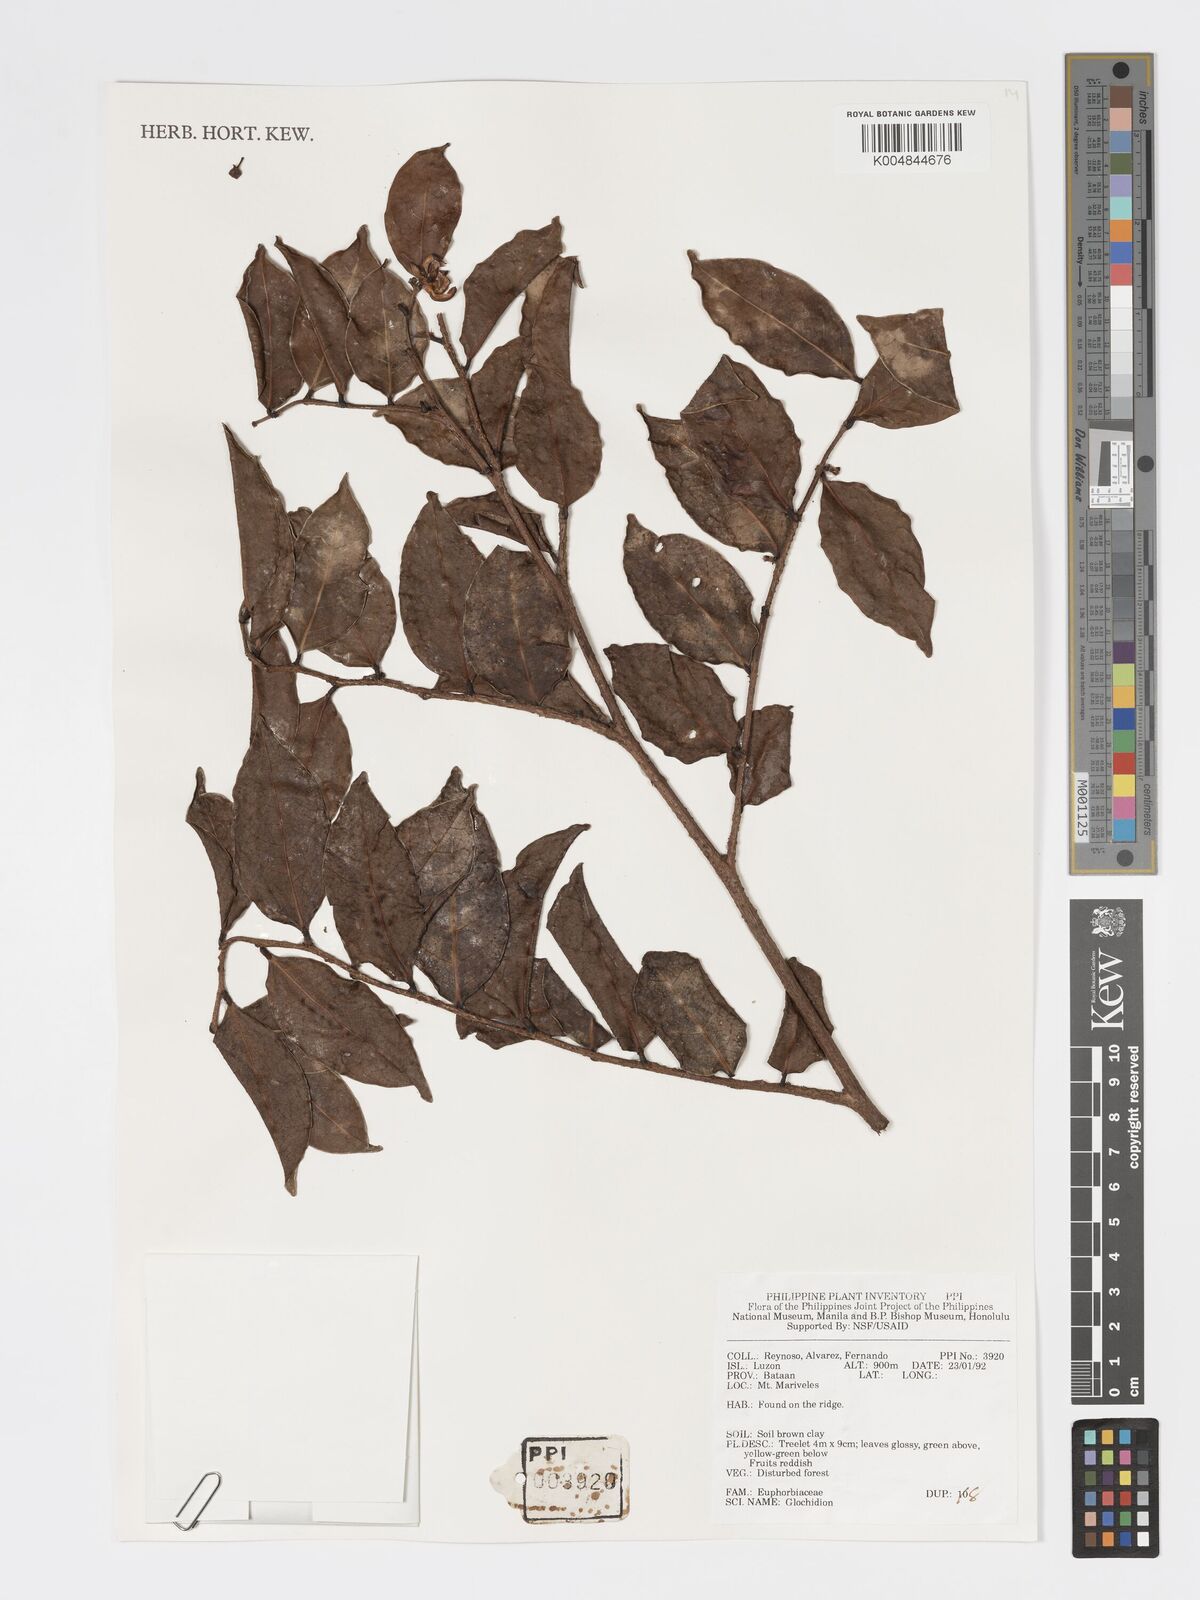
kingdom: Plantae
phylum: Tracheophyta
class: Magnoliopsida
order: Malpighiales
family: Phyllanthaceae
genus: Glochidion
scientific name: Glochidion
